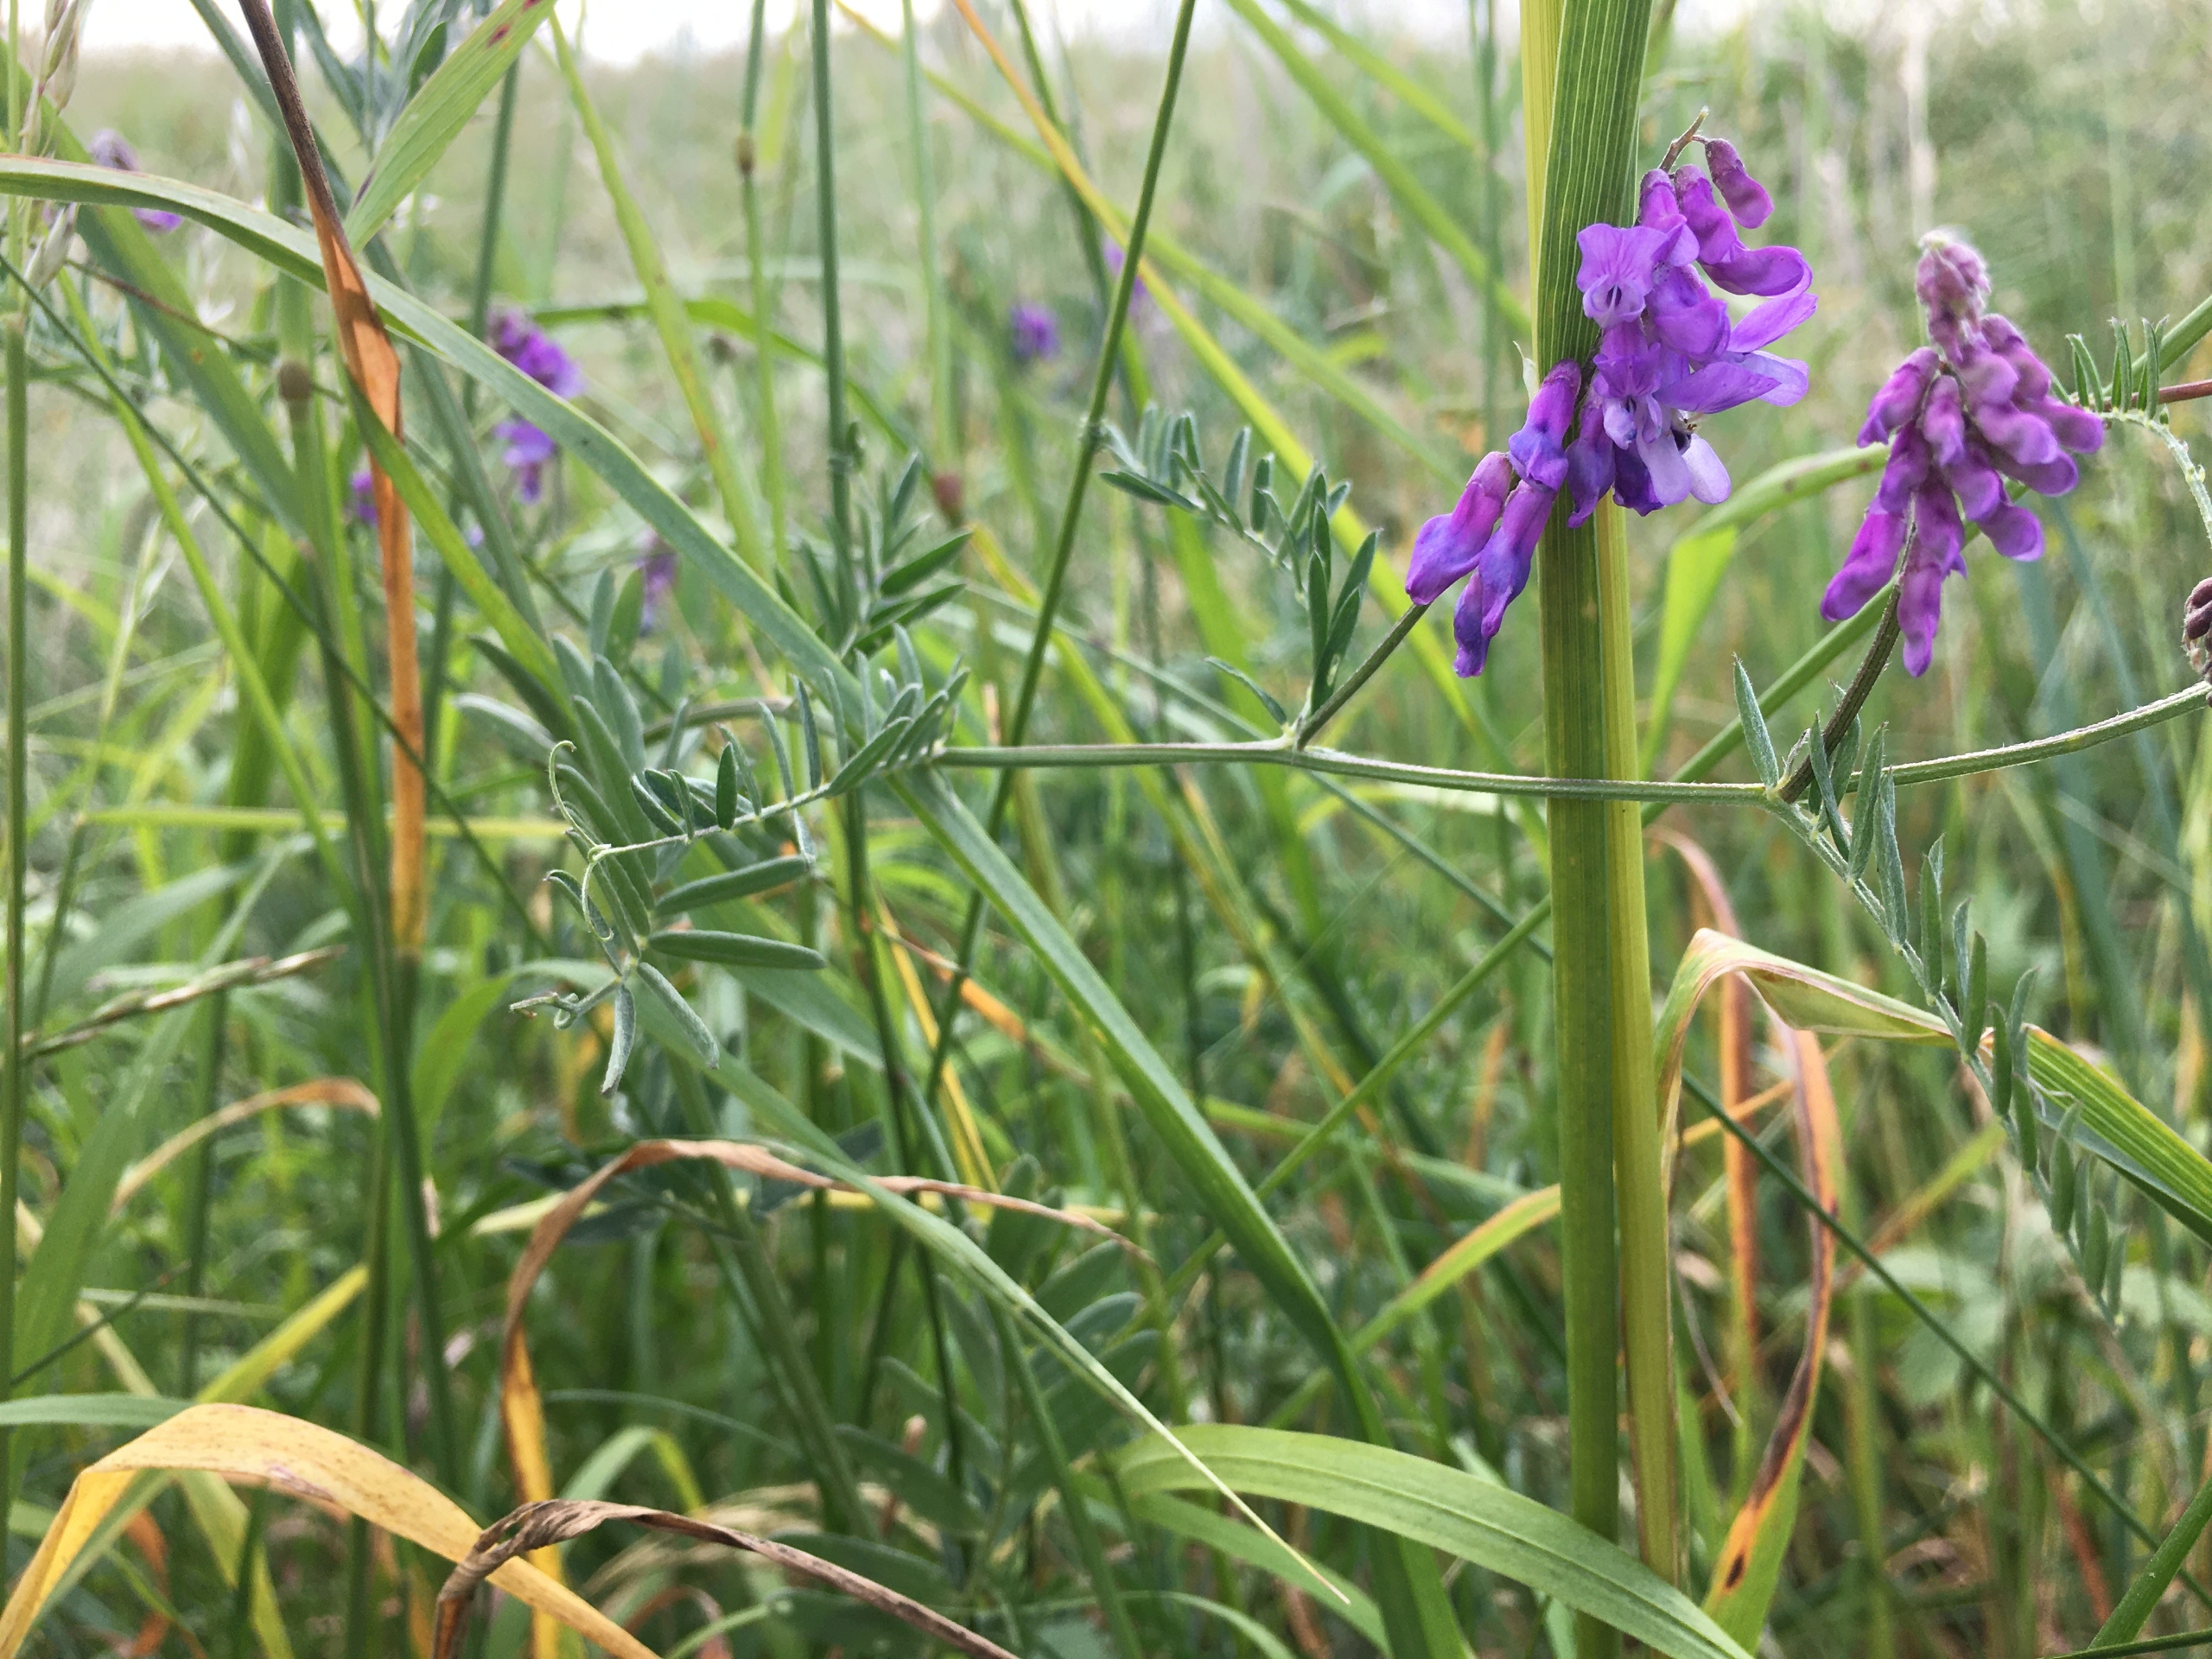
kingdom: Plantae
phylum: Tracheophyta
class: Magnoliopsida
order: Fabales
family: Fabaceae
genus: Vicia
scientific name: Vicia cracca
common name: Muse-vikke
